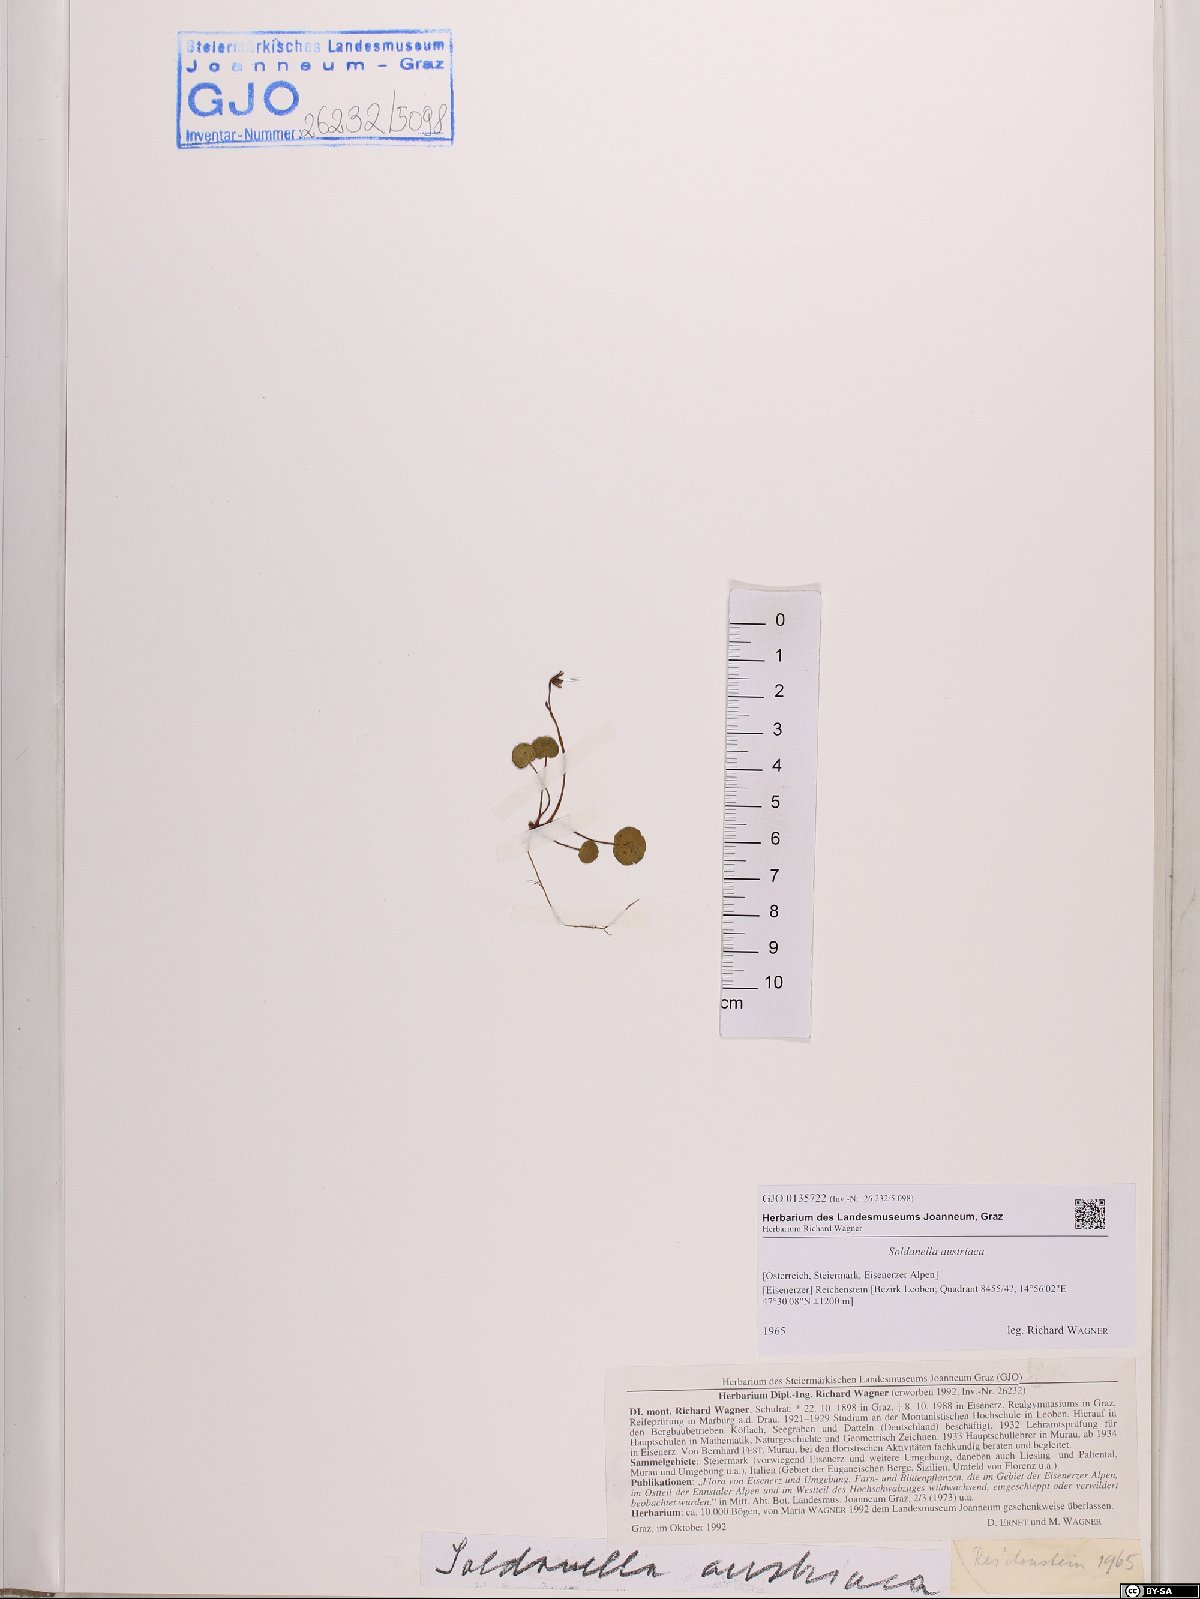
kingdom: Plantae
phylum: Tracheophyta
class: Magnoliopsida
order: Ericales
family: Primulaceae
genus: Soldanella
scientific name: Soldanella austriaca
